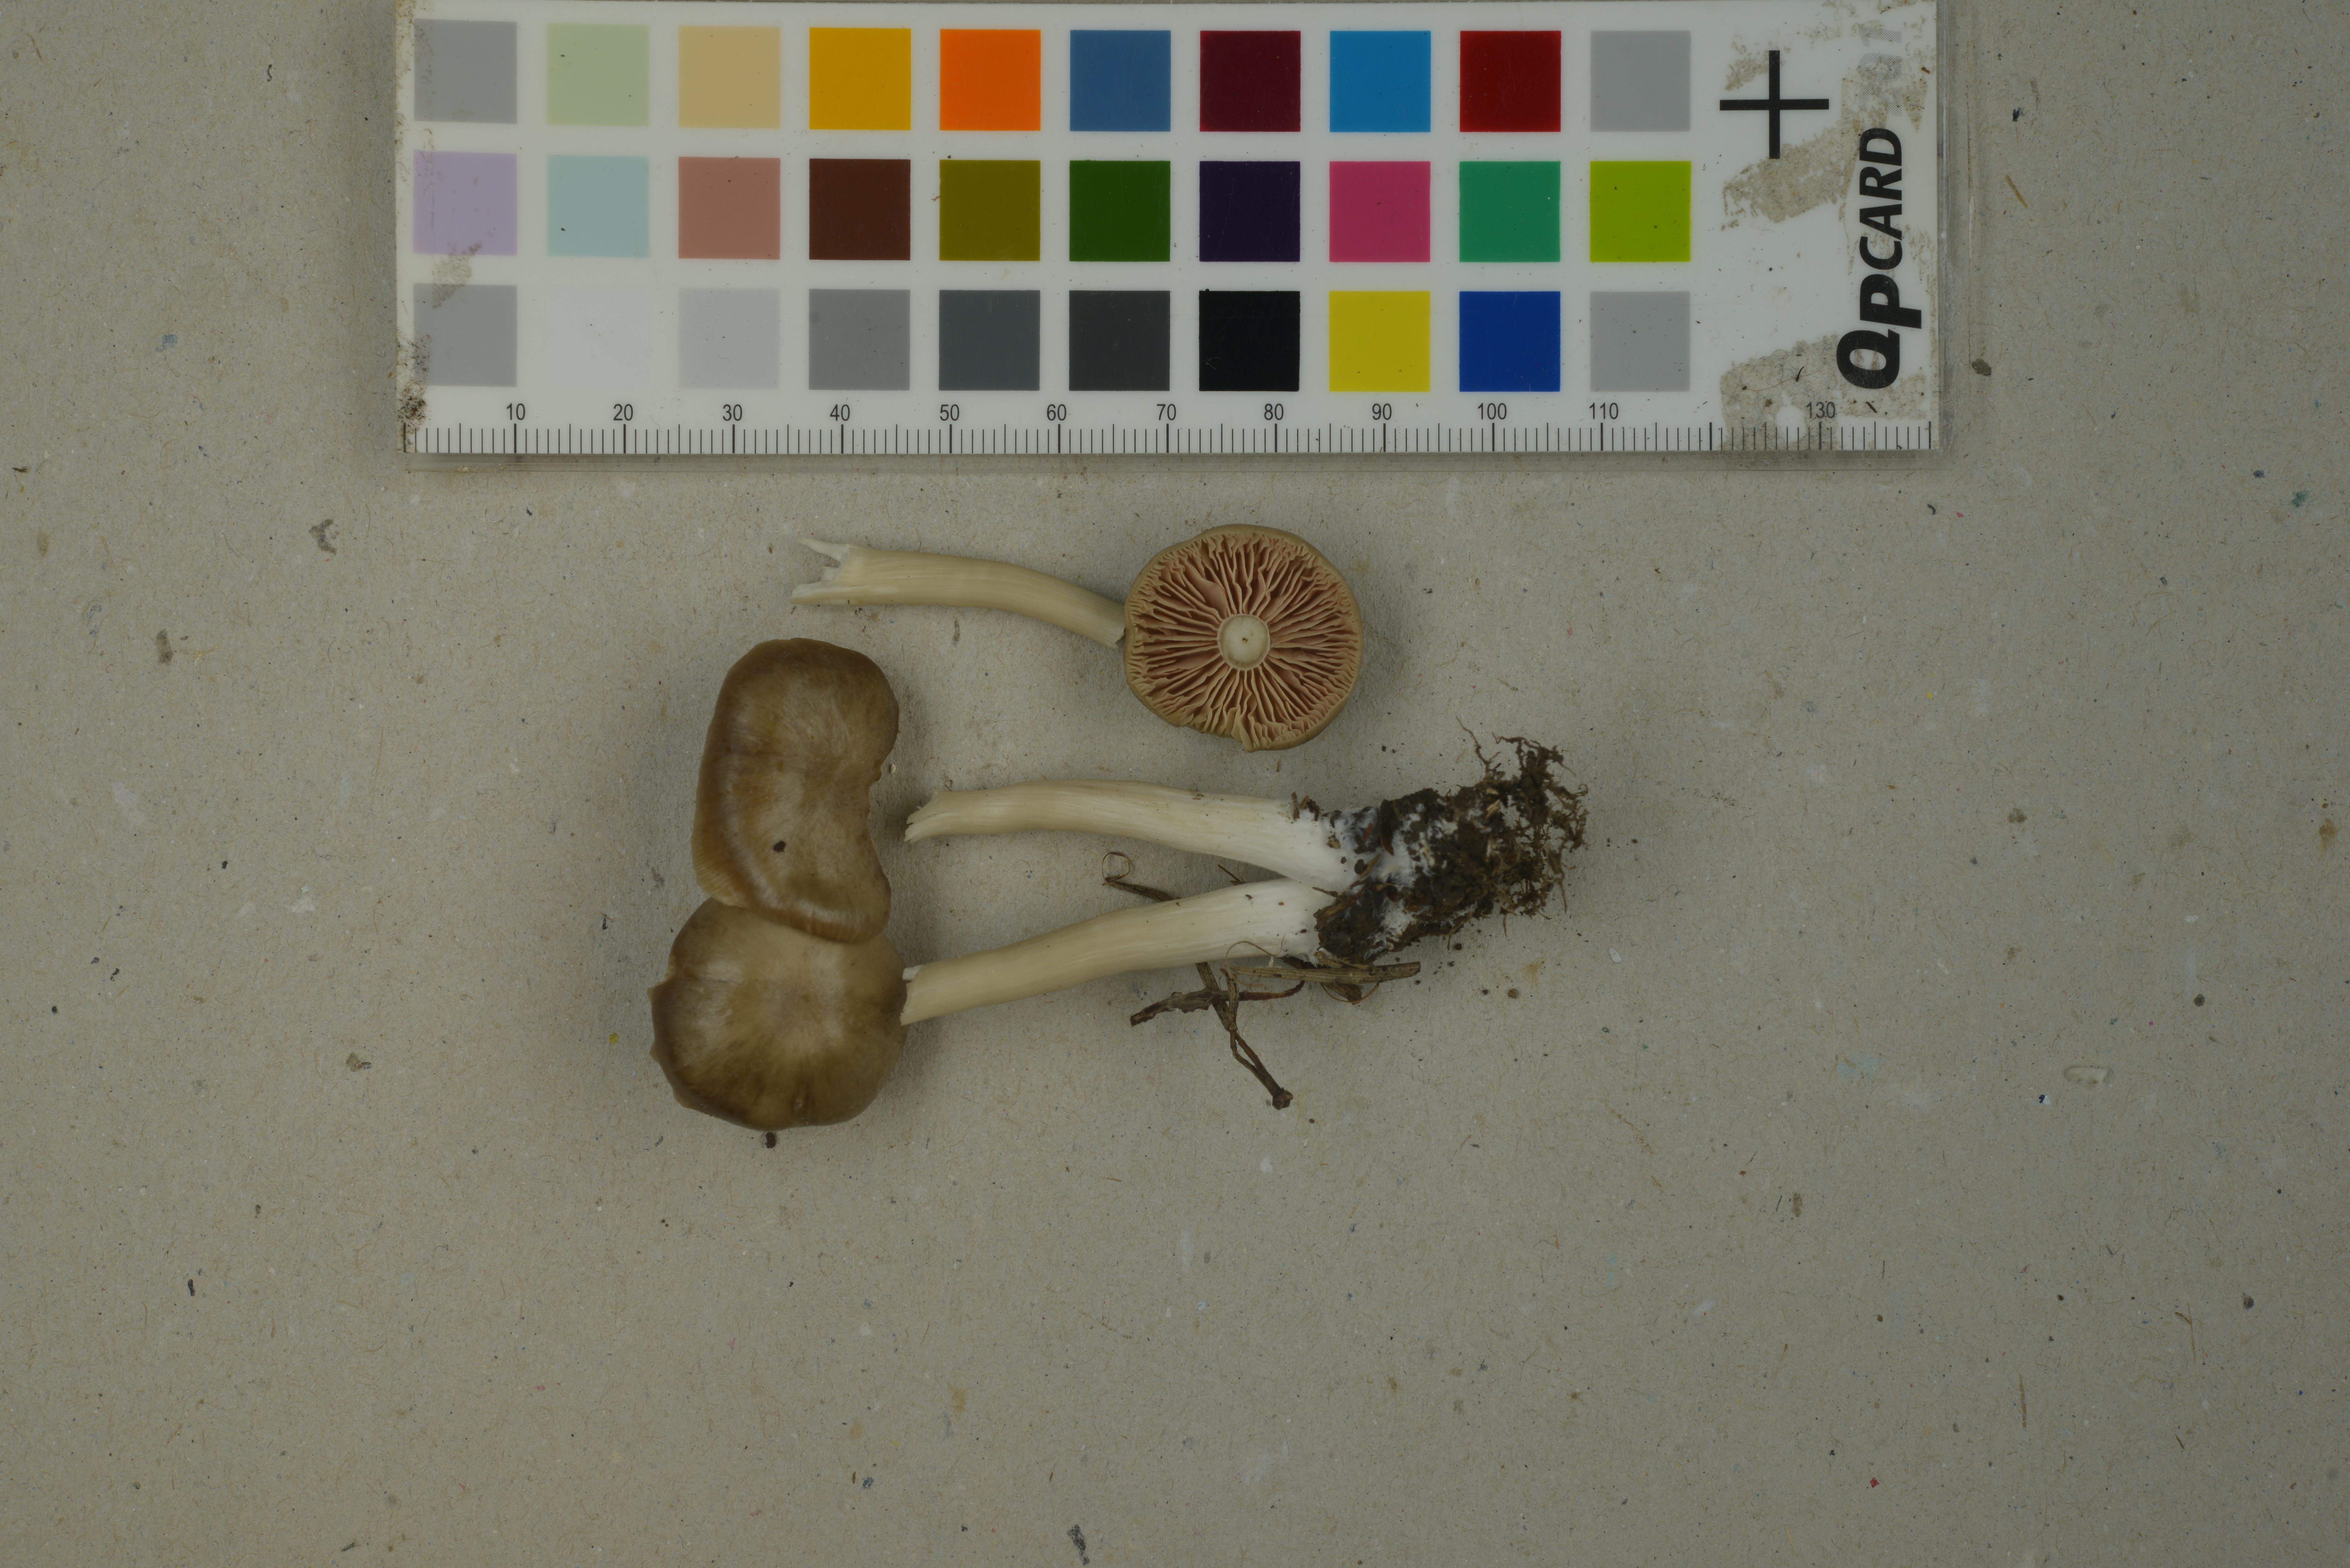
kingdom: Fungi
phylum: Basidiomycota
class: Agaricomycetes
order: Agaricales
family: Entolomataceae
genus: Entoloma
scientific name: Entoloma silvae-frondosae
